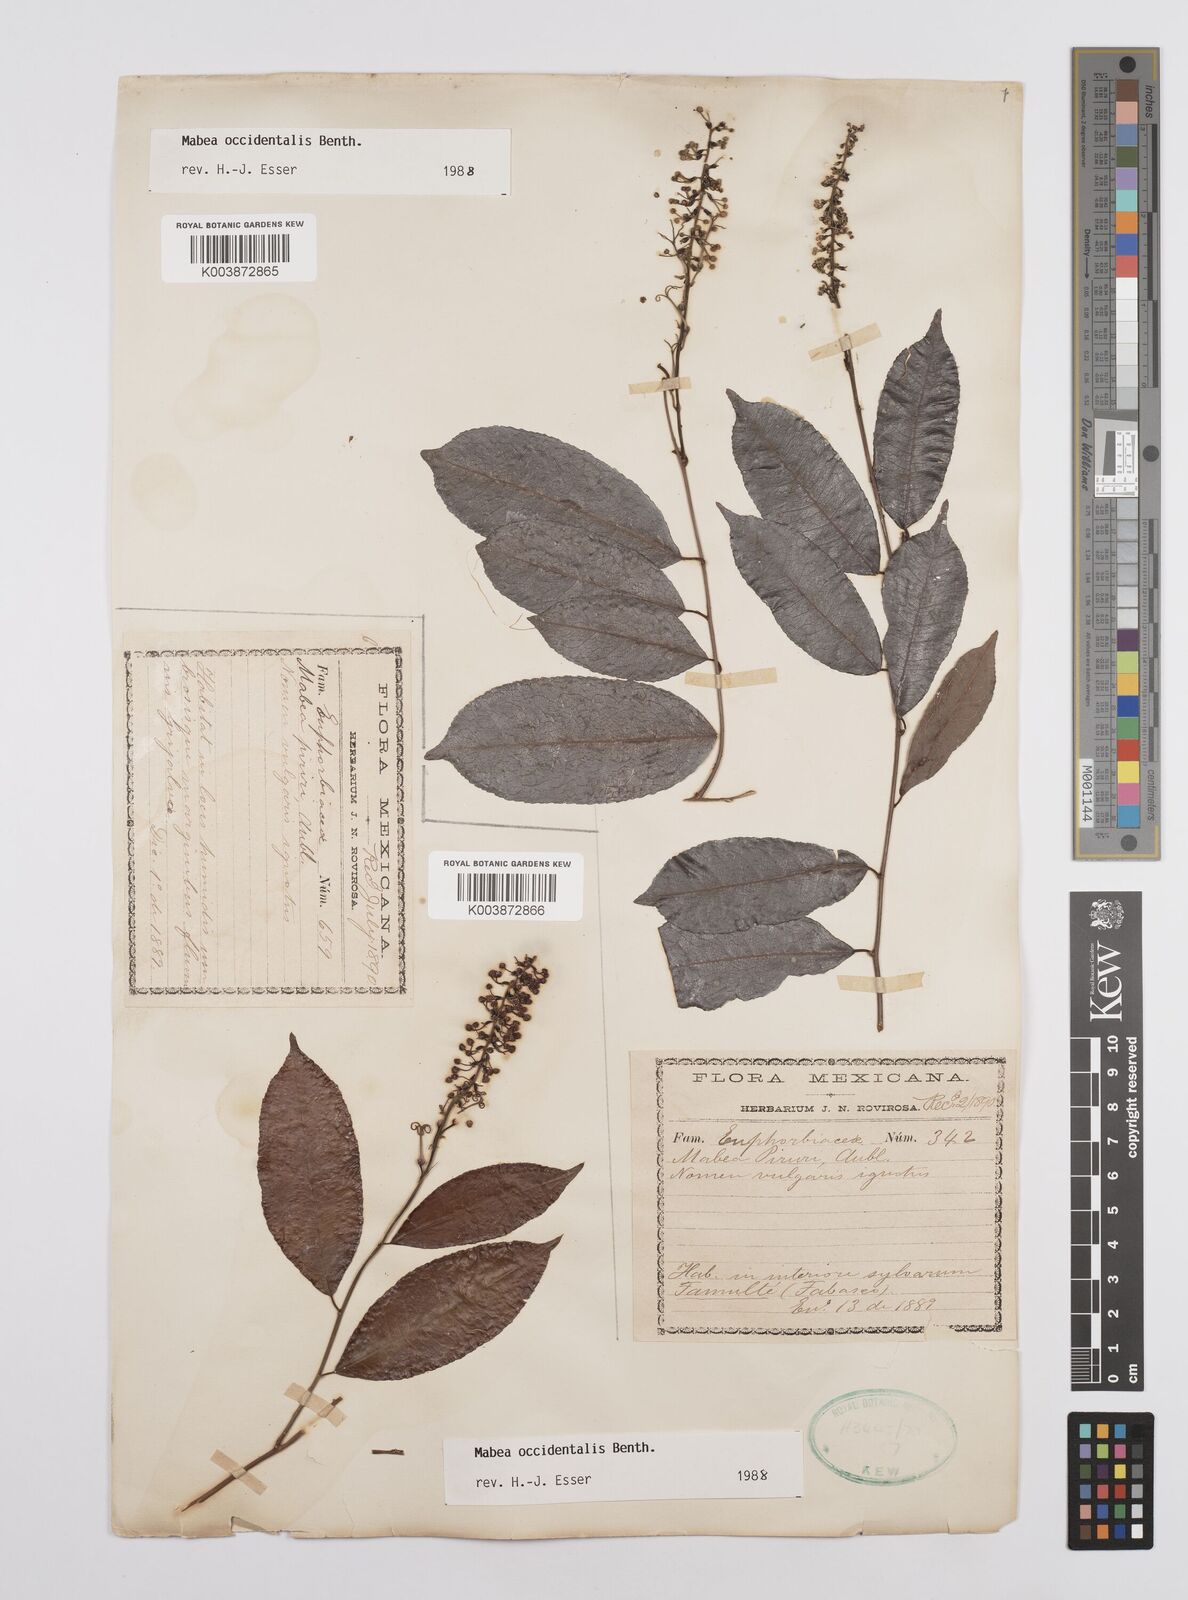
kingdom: Plantae
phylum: Tracheophyta
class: Magnoliopsida
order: Malpighiales
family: Euphorbiaceae
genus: Mabea
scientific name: Mabea occidentalis
